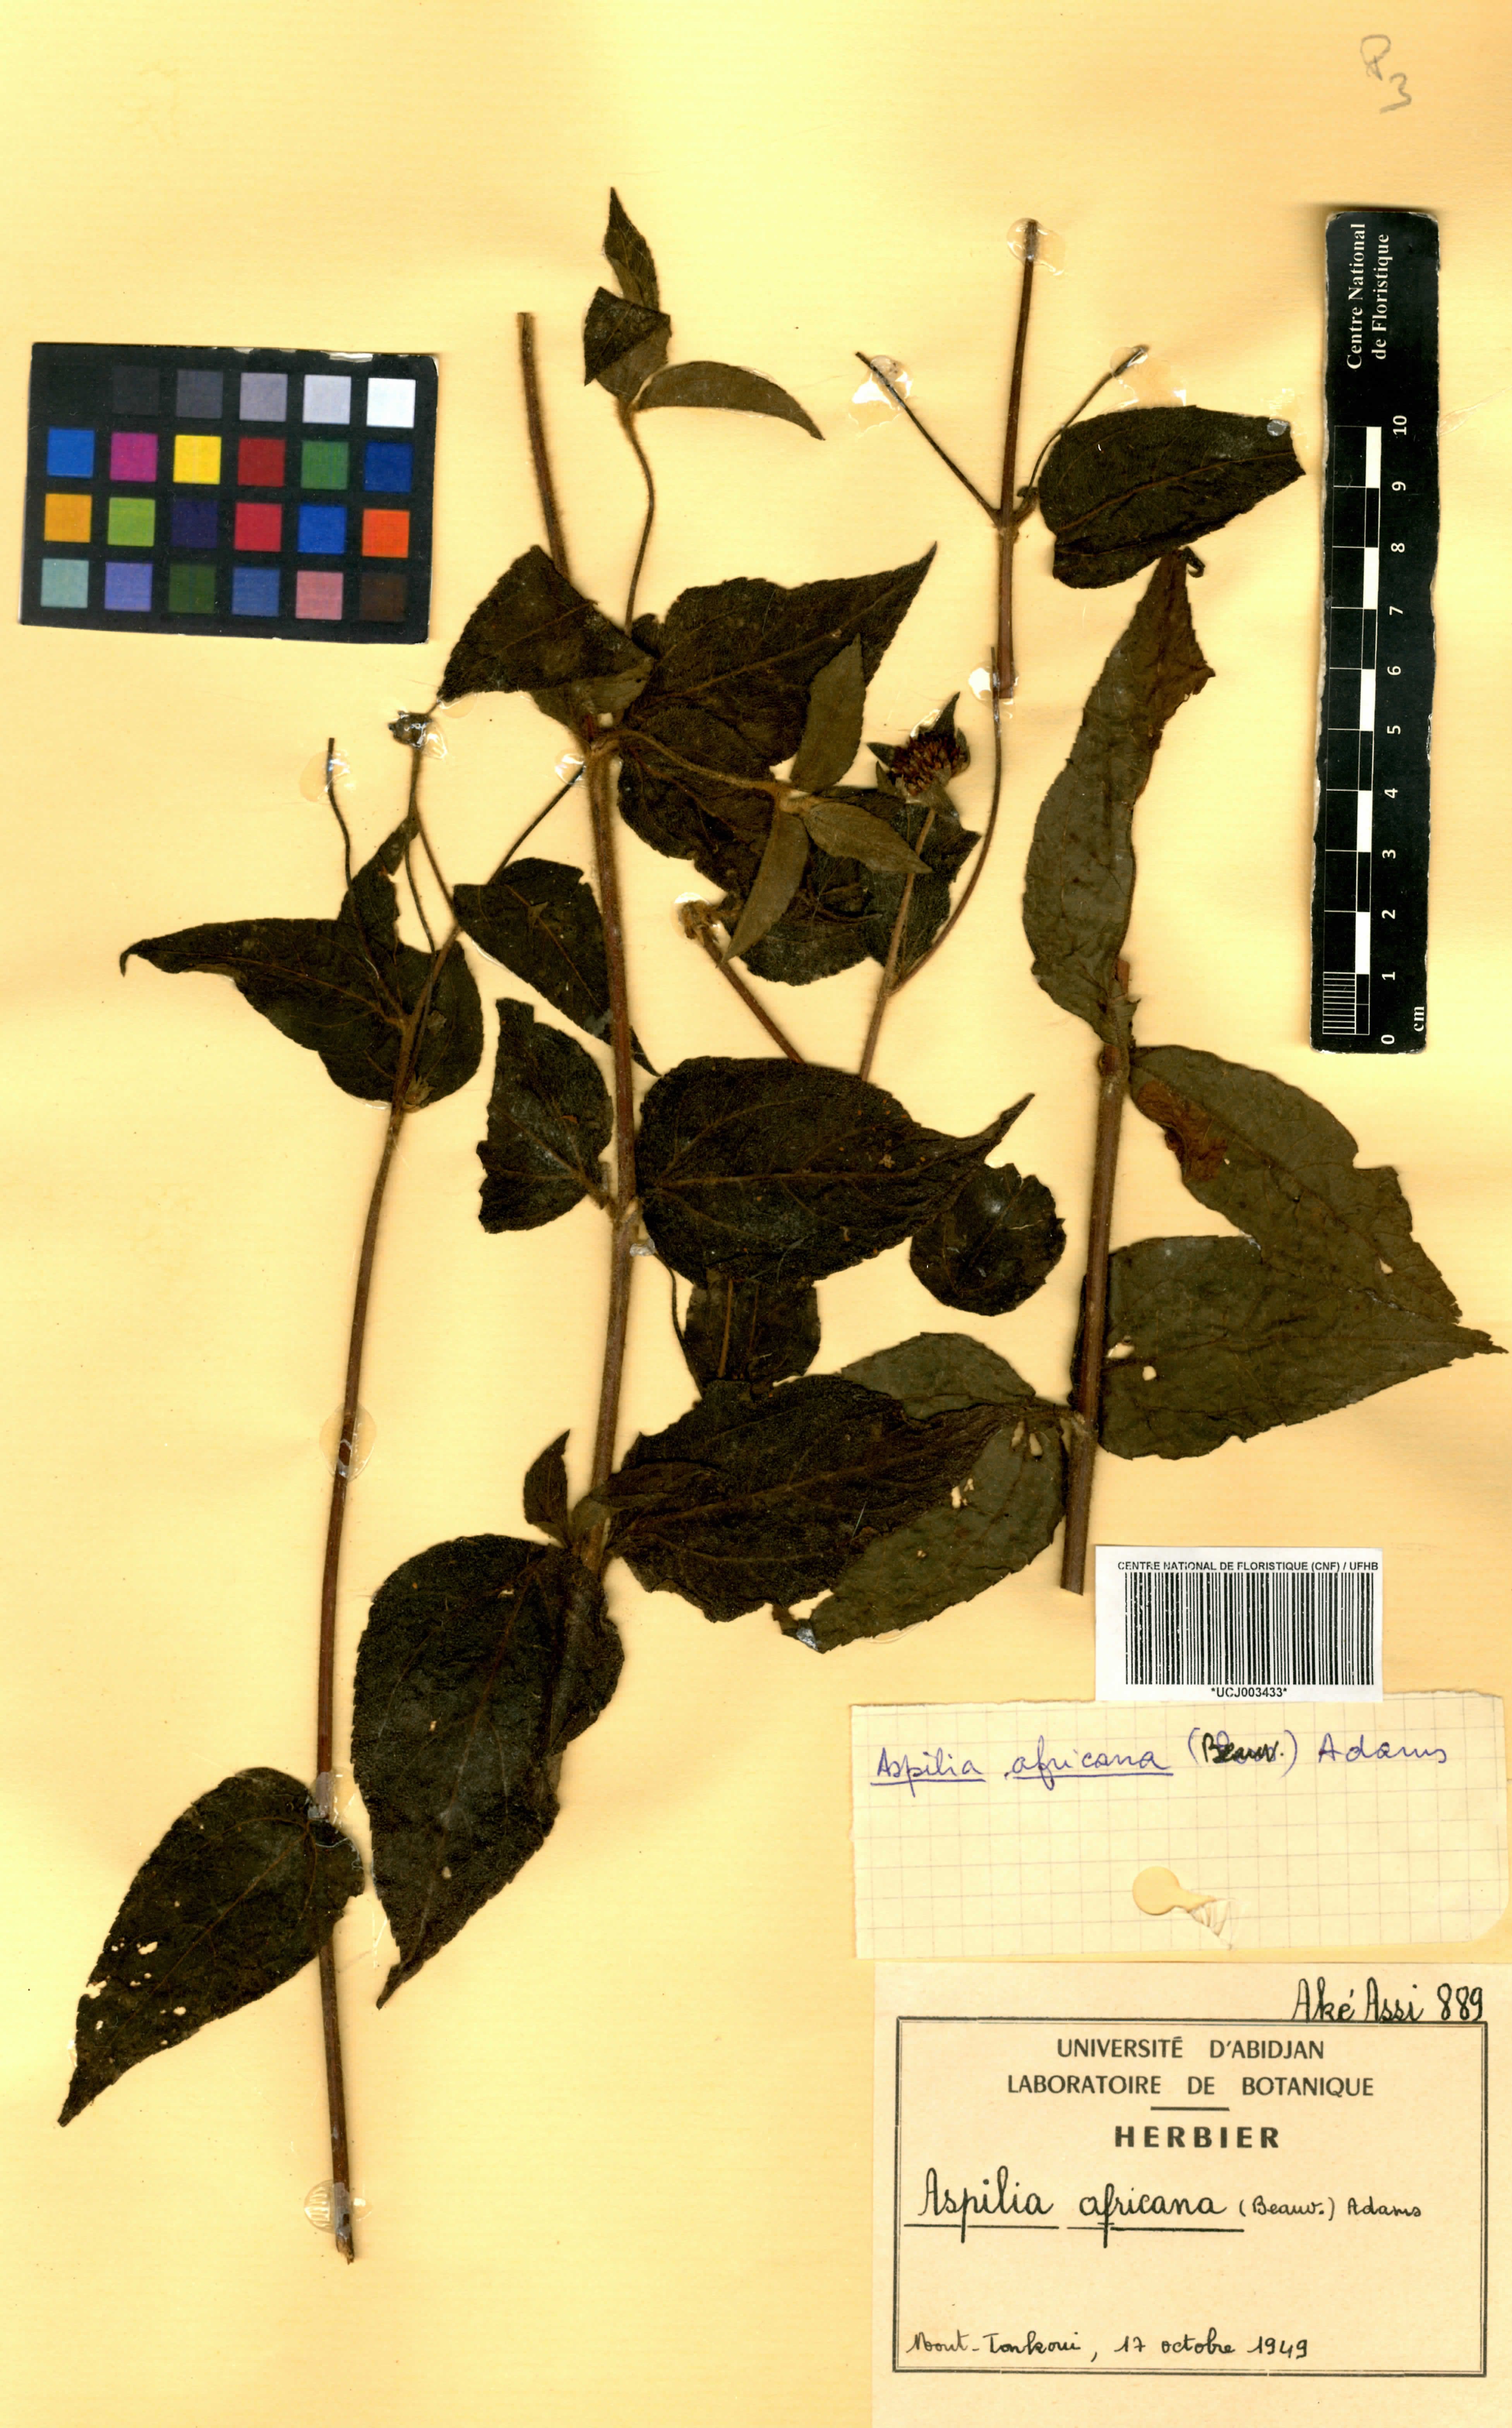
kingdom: Plantae
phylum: Tracheophyta
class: Magnoliopsida
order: Asterales
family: Asteraceae
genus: Aspilia
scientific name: Aspilia africana
